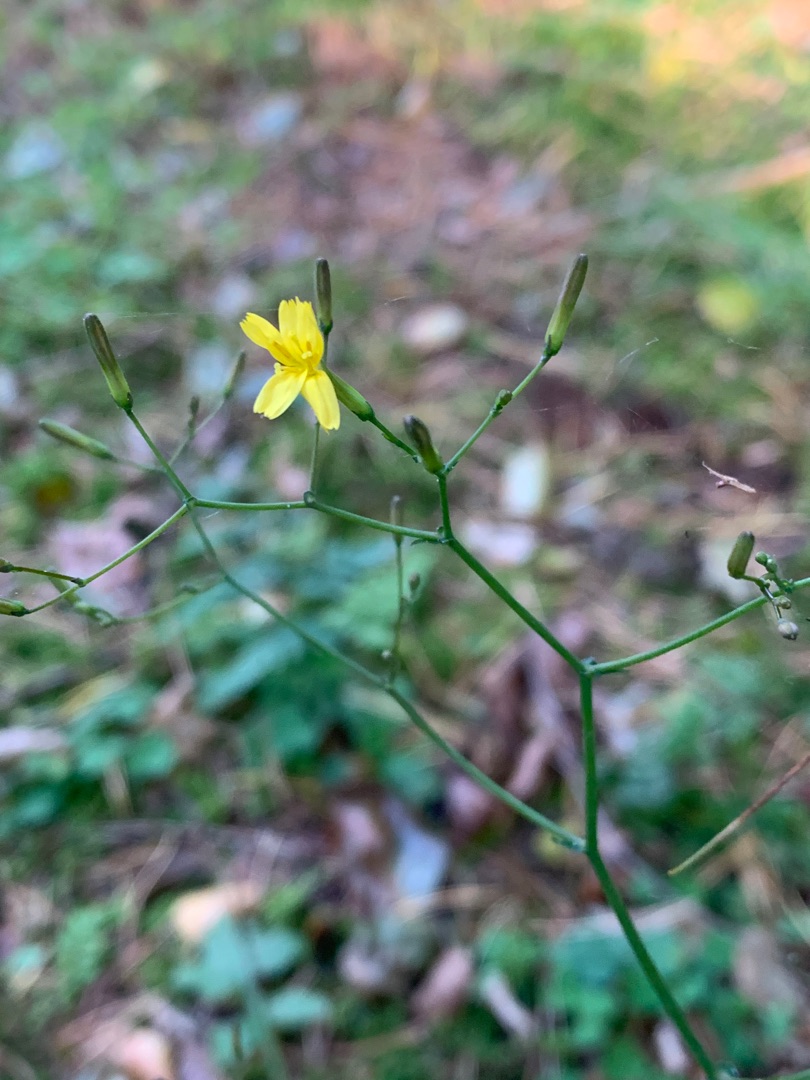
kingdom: Plantae
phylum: Tracheophyta
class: Magnoliopsida
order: Asterales
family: Asteraceae
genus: Mycelis
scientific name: Mycelis muralis
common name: Skov-salat
